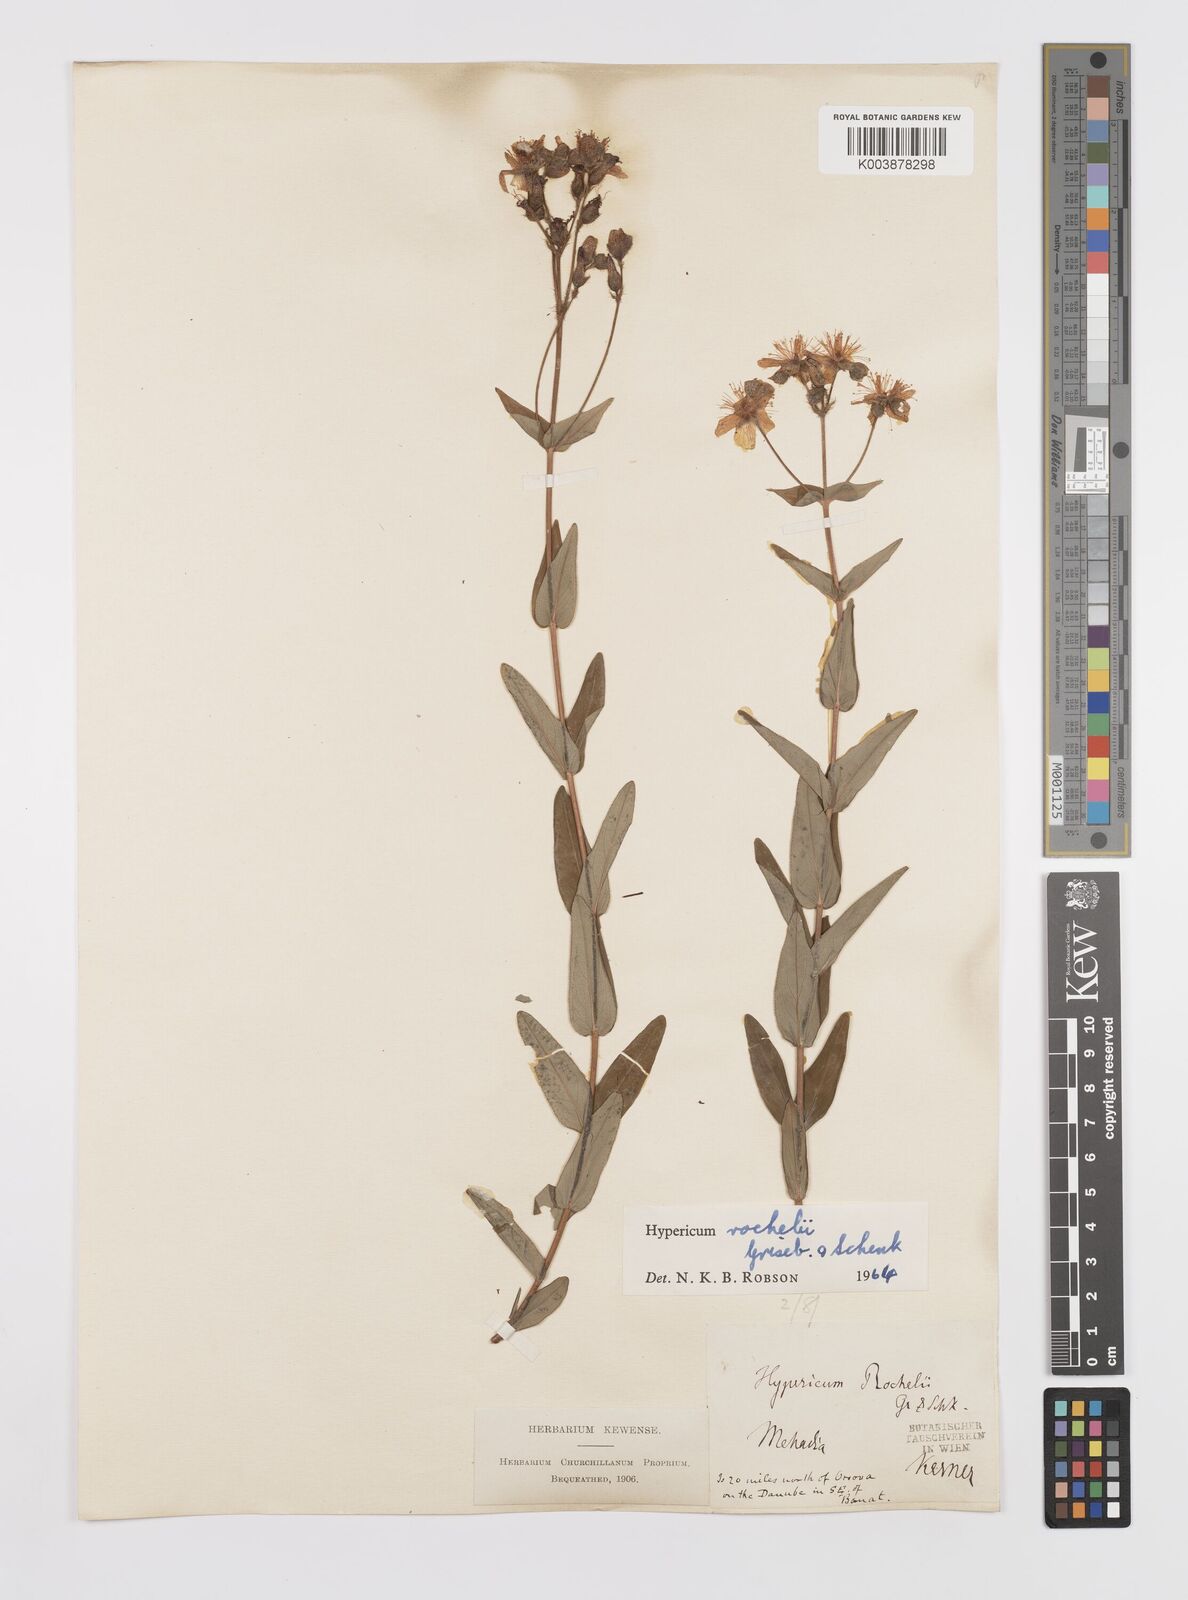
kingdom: Plantae
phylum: Tracheophyta
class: Magnoliopsida
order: Malpighiales
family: Hypericaceae
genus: Hypericum
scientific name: Hypericum rochelii
